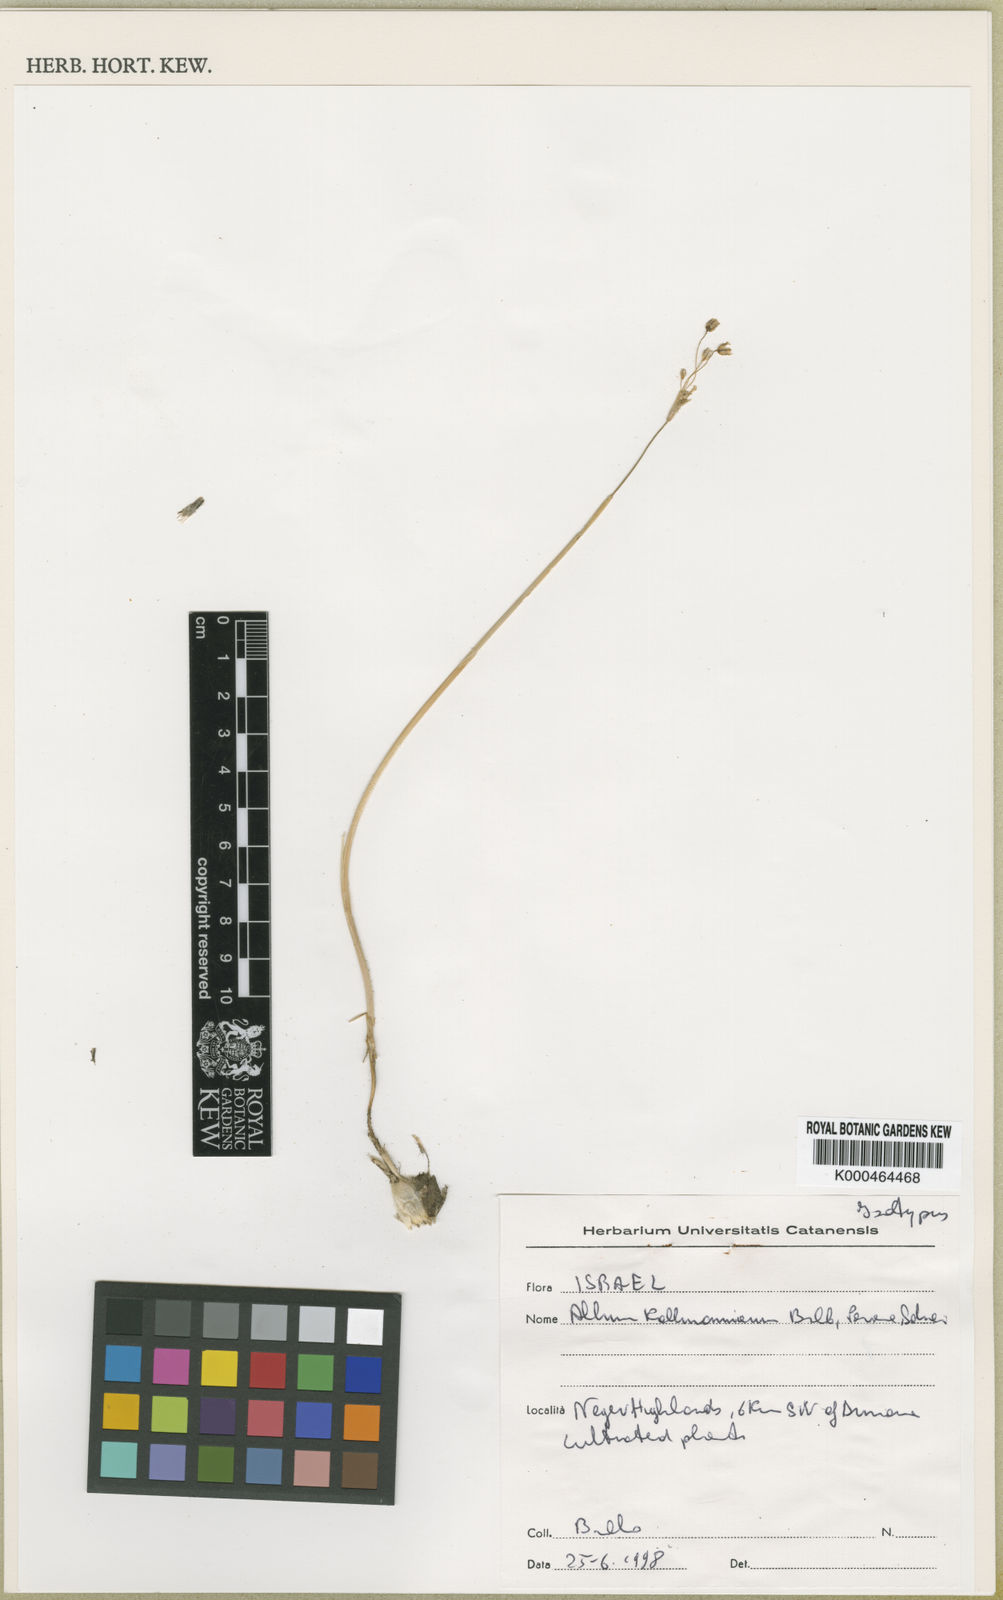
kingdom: Plantae
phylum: Tracheophyta
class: Liliopsida
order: Asparagales
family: Amaryllidaceae
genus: Allium
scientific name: Allium
